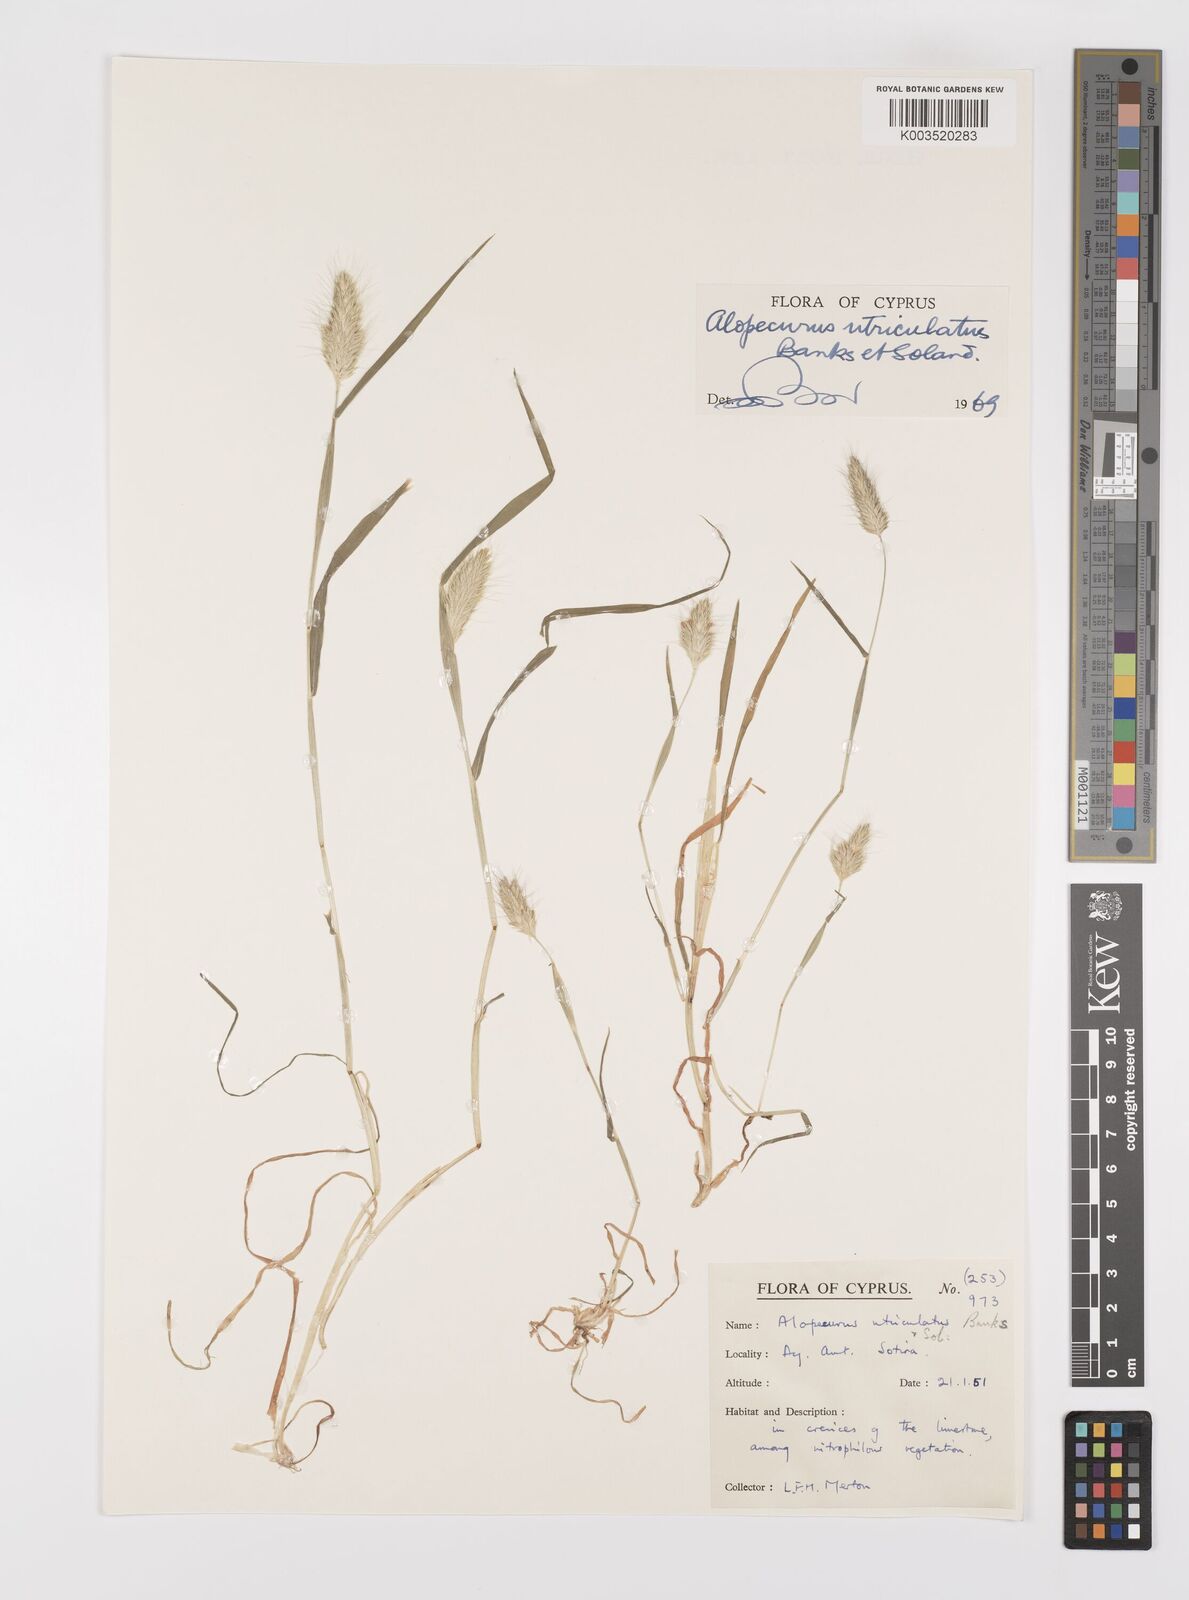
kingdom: Plantae
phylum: Tracheophyta
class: Liliopsida
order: Poales
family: Poaceae
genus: Alopecurus
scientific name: Alopecurus utriculatus
